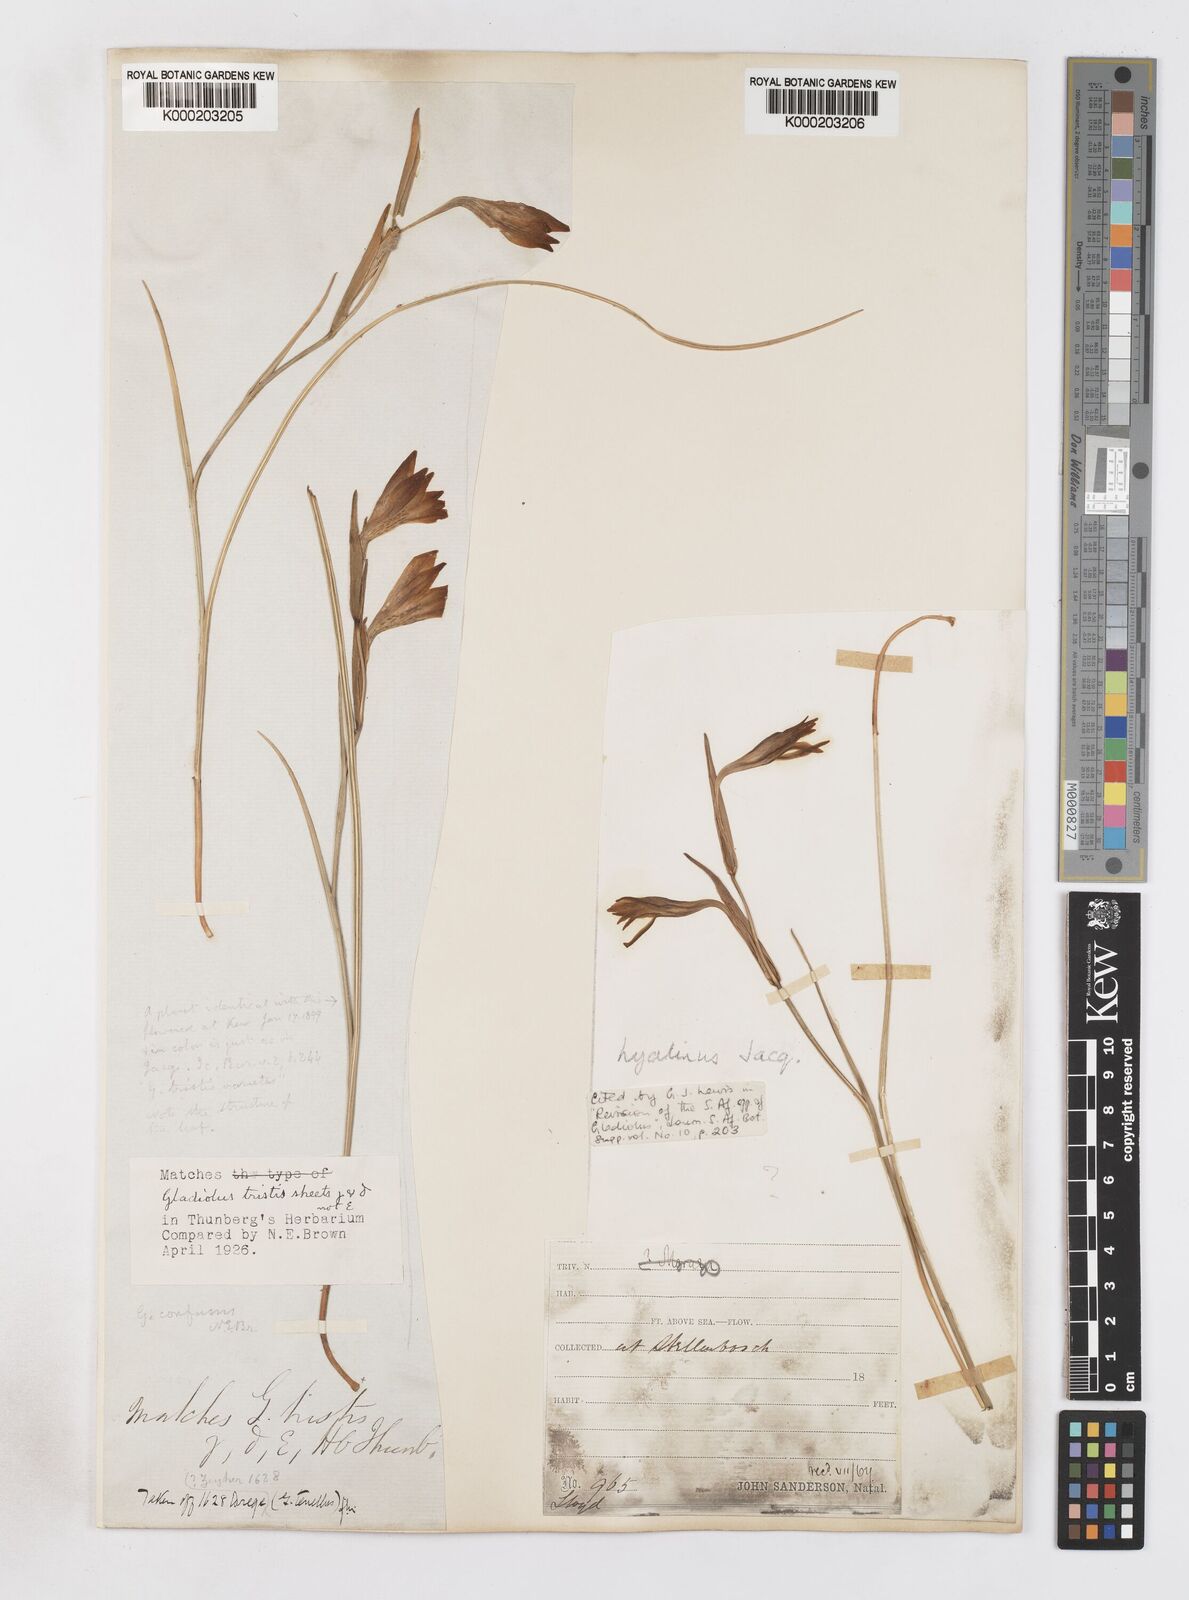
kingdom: Plantae
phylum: Tracheophyta
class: Liliopsida
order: Asparagales
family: Iridaceae
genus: Gladiolus
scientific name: Gladiolus hyalinus
